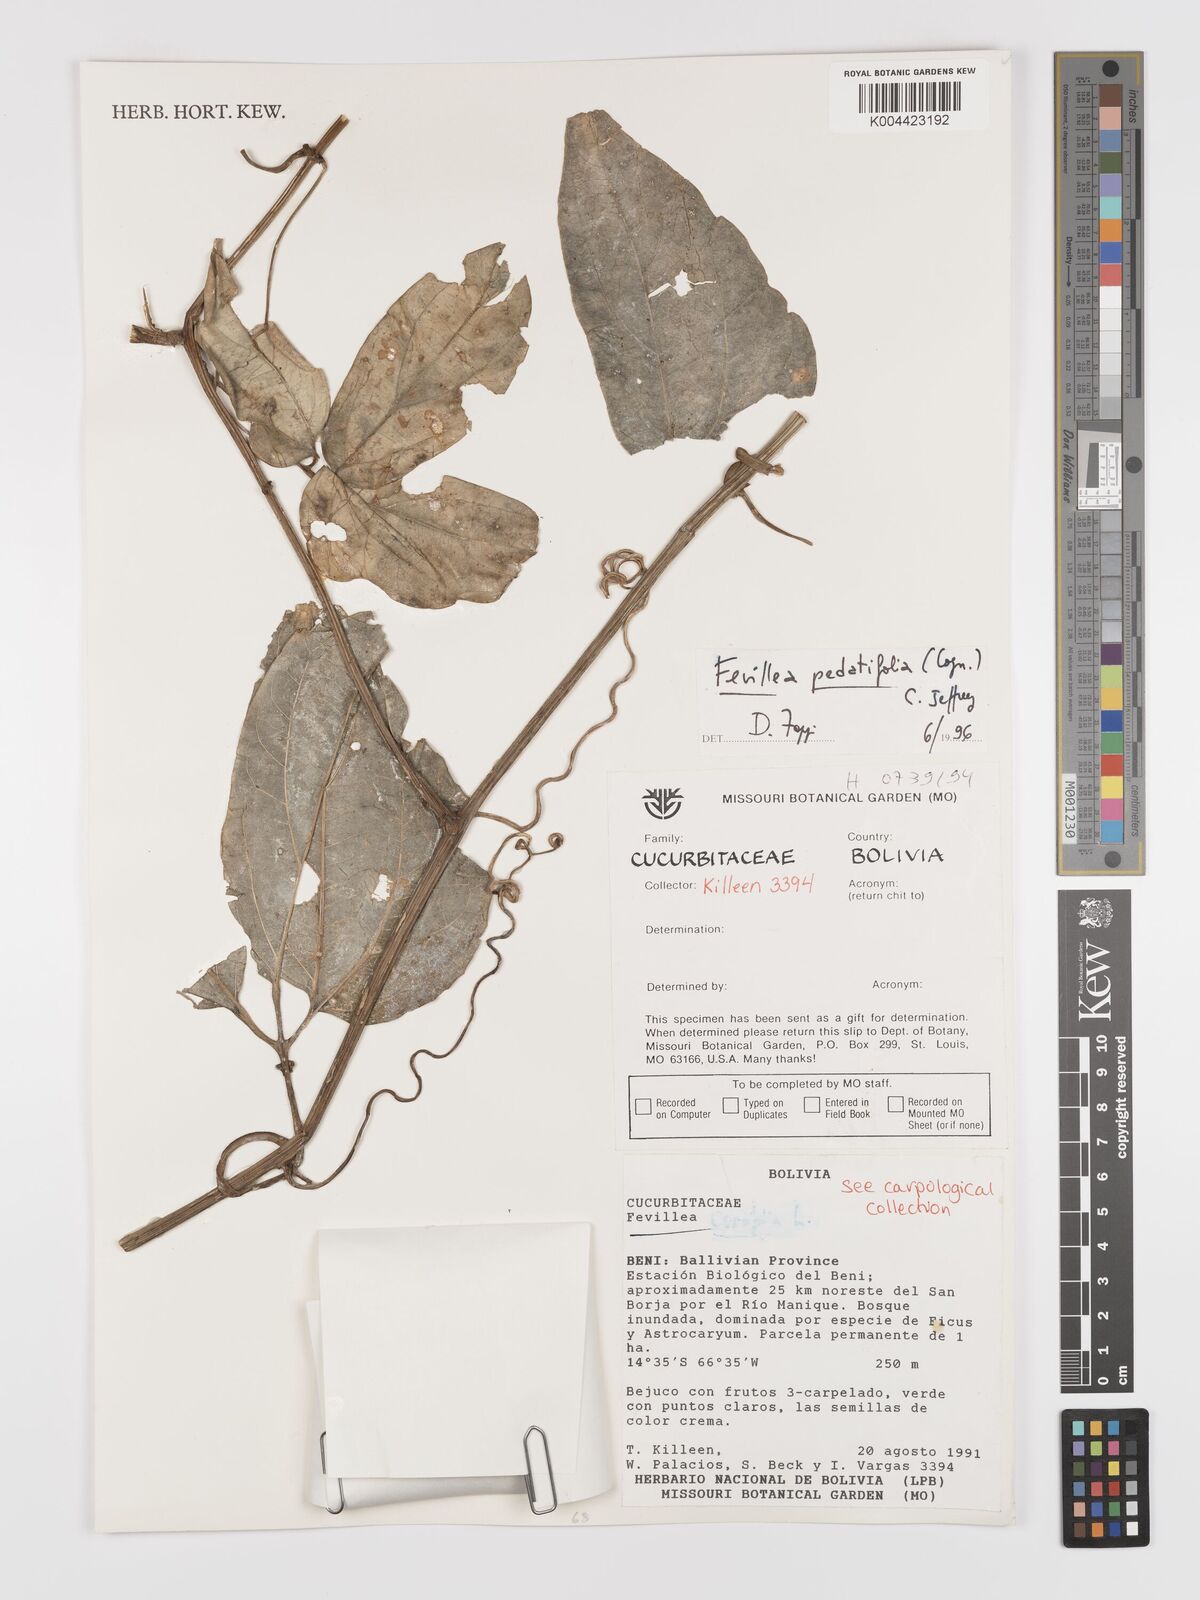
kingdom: Plantae
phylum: Tracheophyta
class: Magnoliopsida
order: Cucurbitales
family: Cucurbitaceae
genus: Fevillea
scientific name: Fevillea pedatifolia
